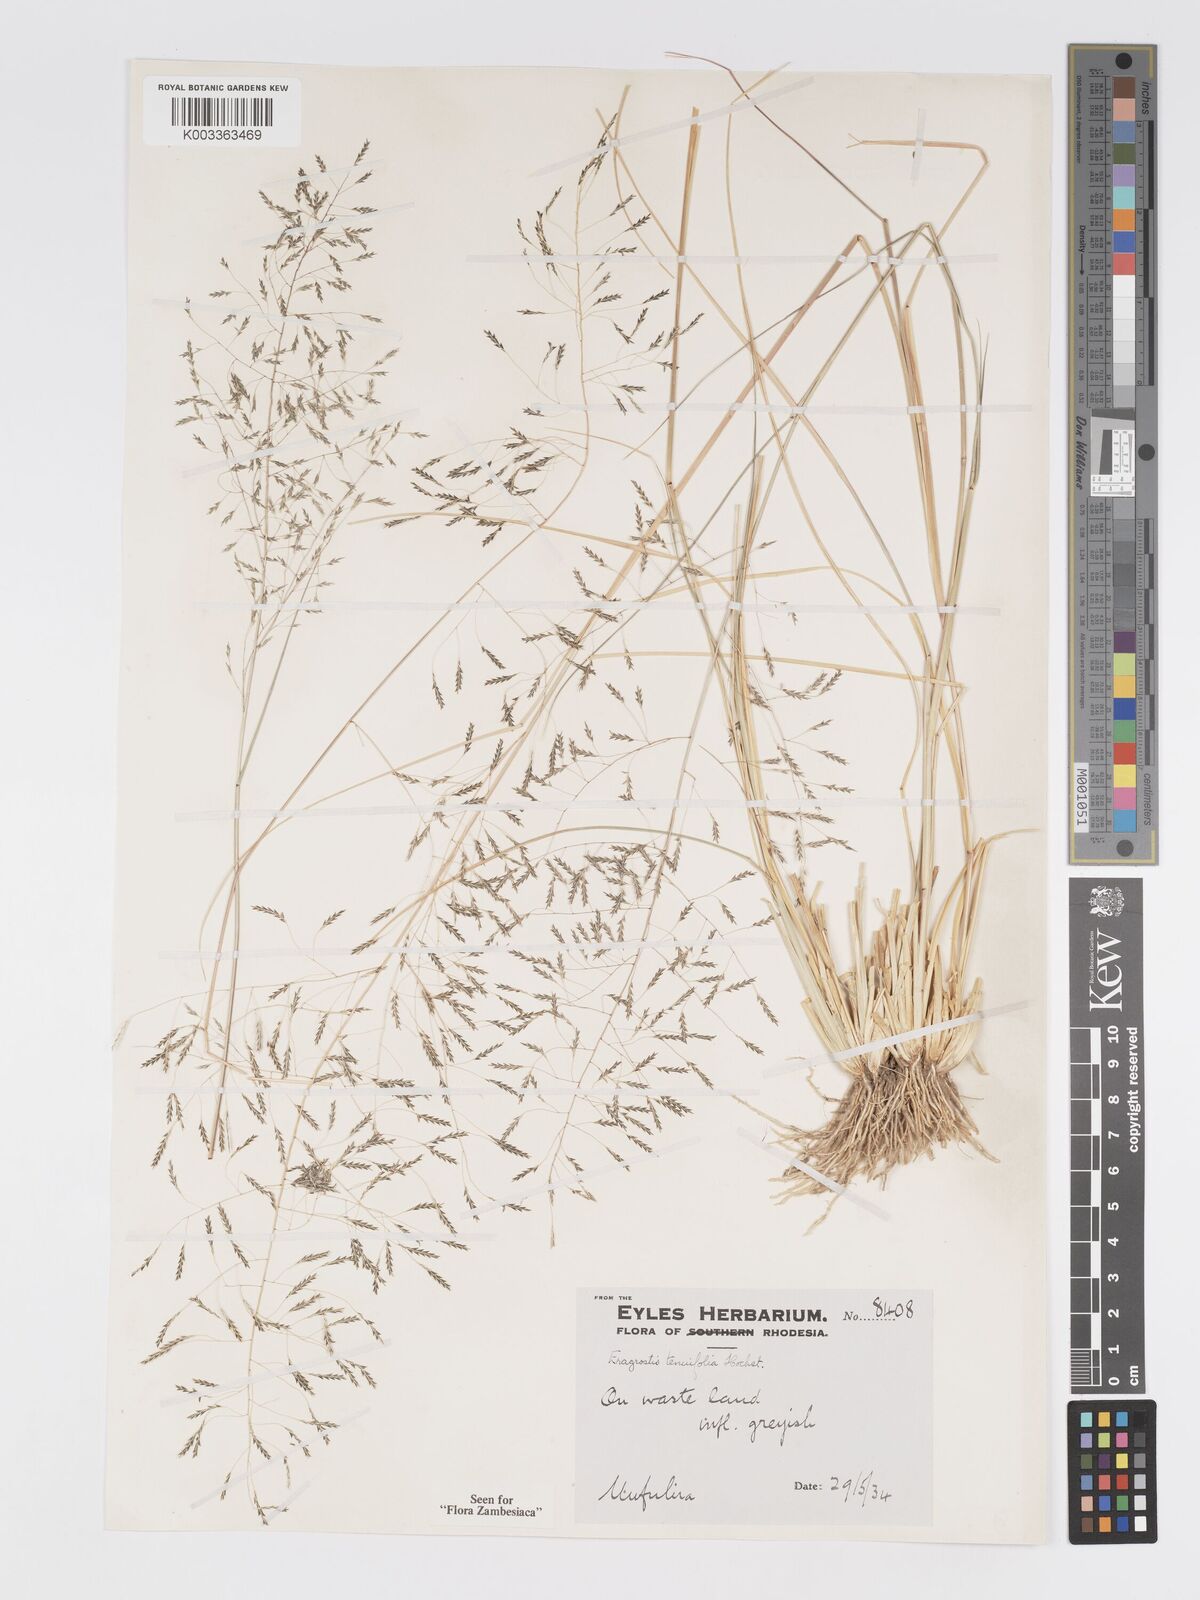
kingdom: Plantae
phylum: Tracheophyta
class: Liliopsida
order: Poales
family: Poaceae
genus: Eragrostis
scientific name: Eragrostis tenuifolia
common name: Elastic grass
